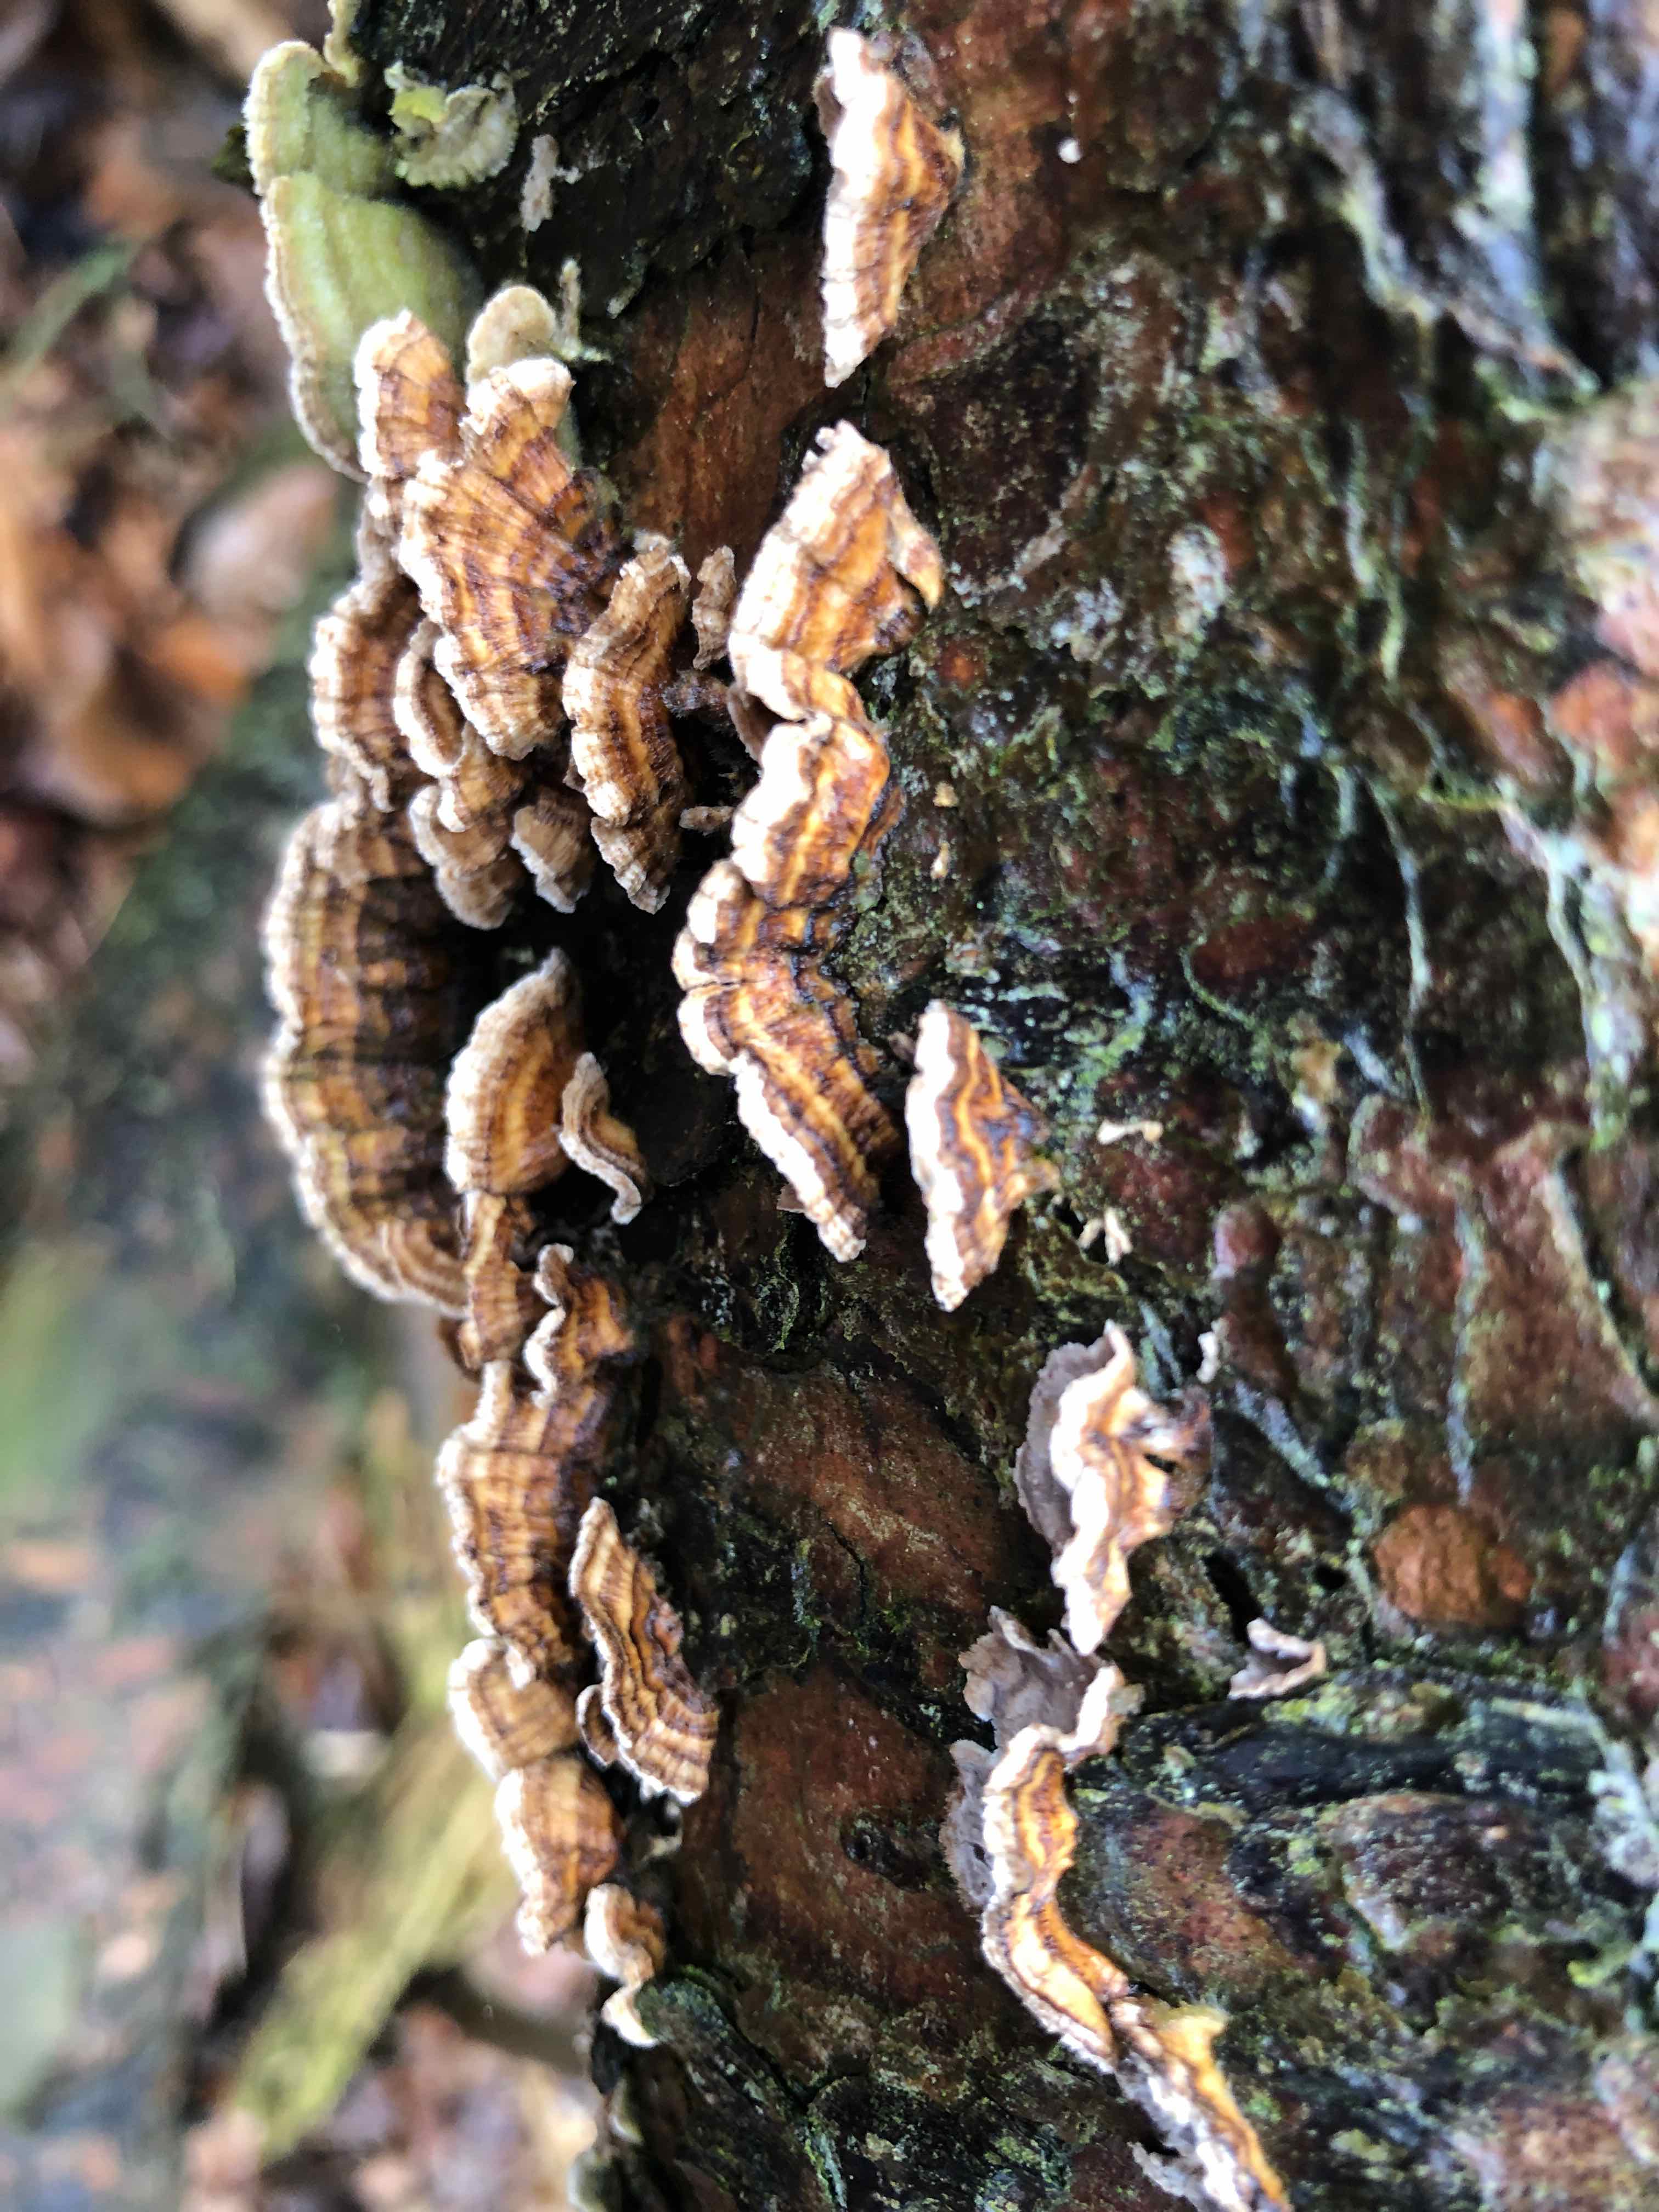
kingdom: Fungi
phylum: Basidiomycota
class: Agaricomycetes
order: Russulales
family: Stereaceae
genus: Stereum
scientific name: Stereum sanguinolentum
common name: blødende lædersvamp
